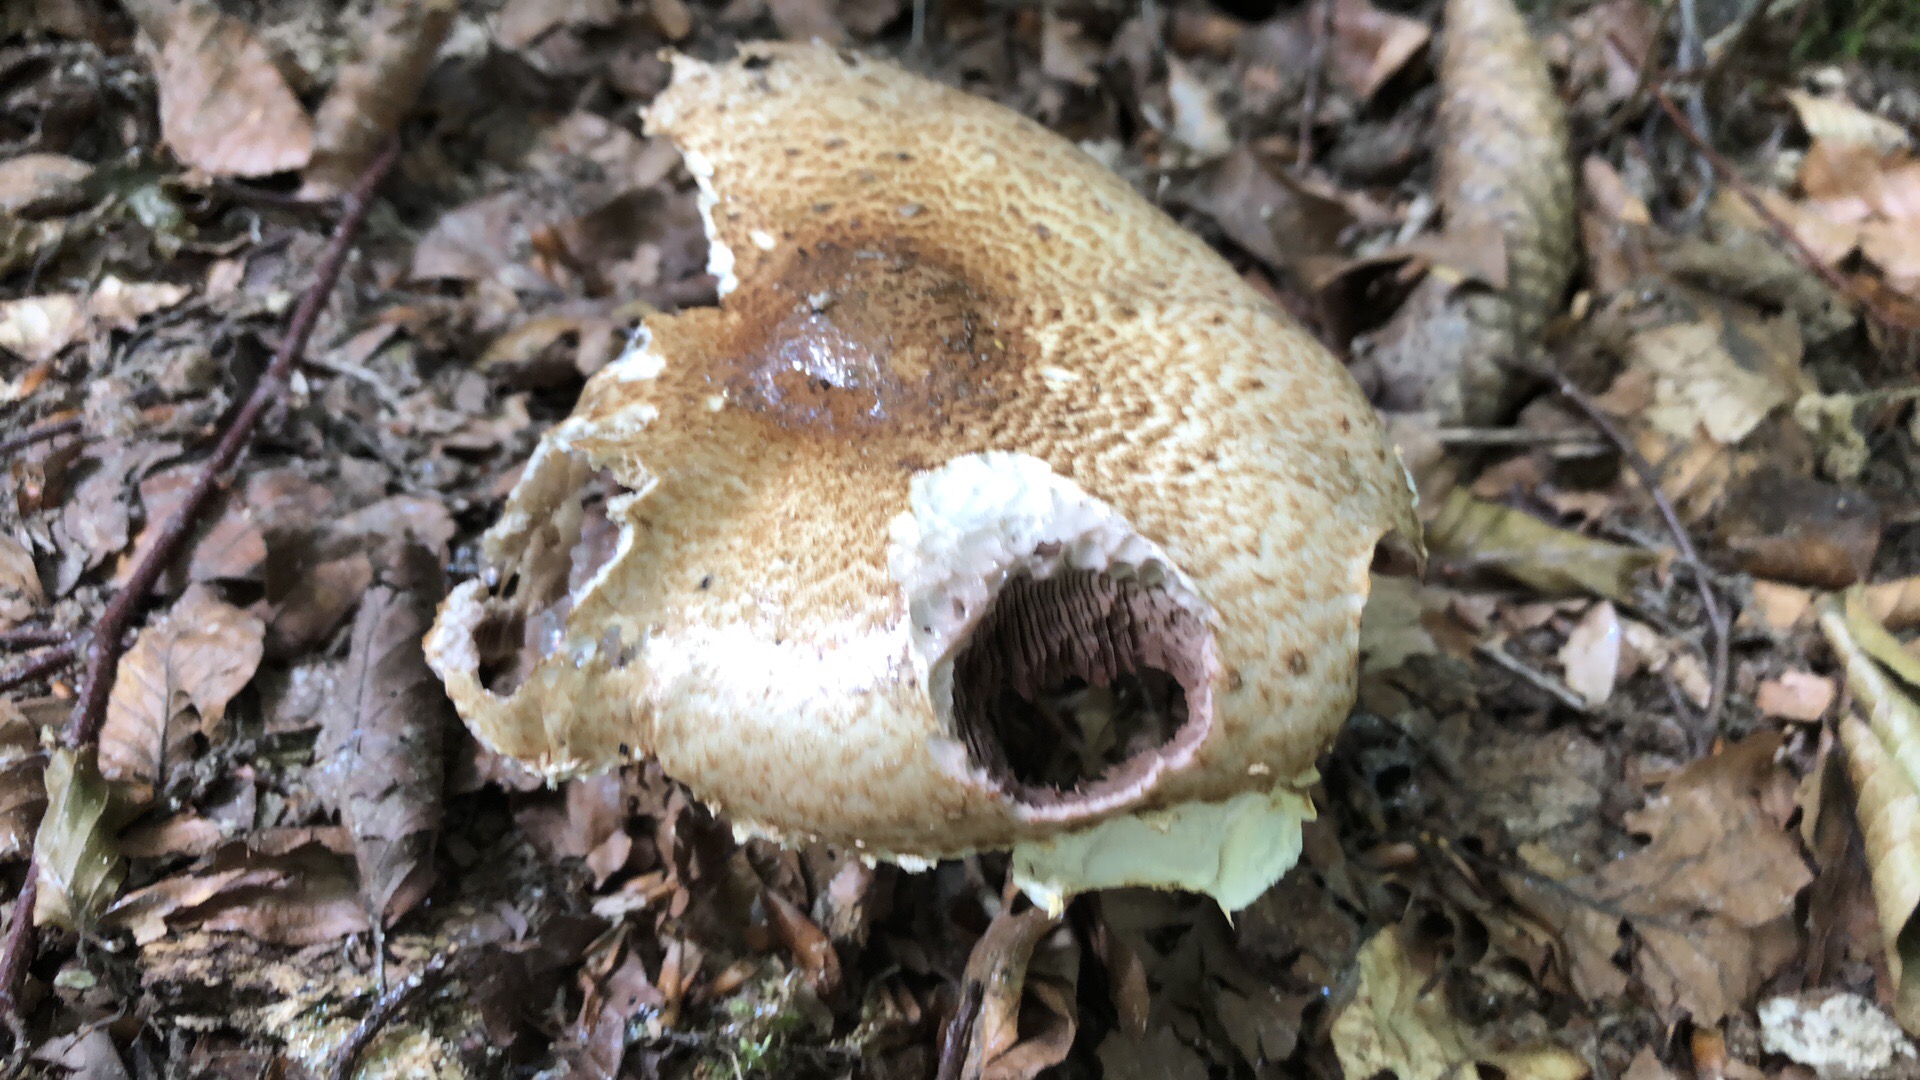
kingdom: Fungi
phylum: Basidiomycota
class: Agaricomycetes
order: Agaricales
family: Agaricaceae
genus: Agaricus
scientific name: Agaricus augustus
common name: prægtig champignon
